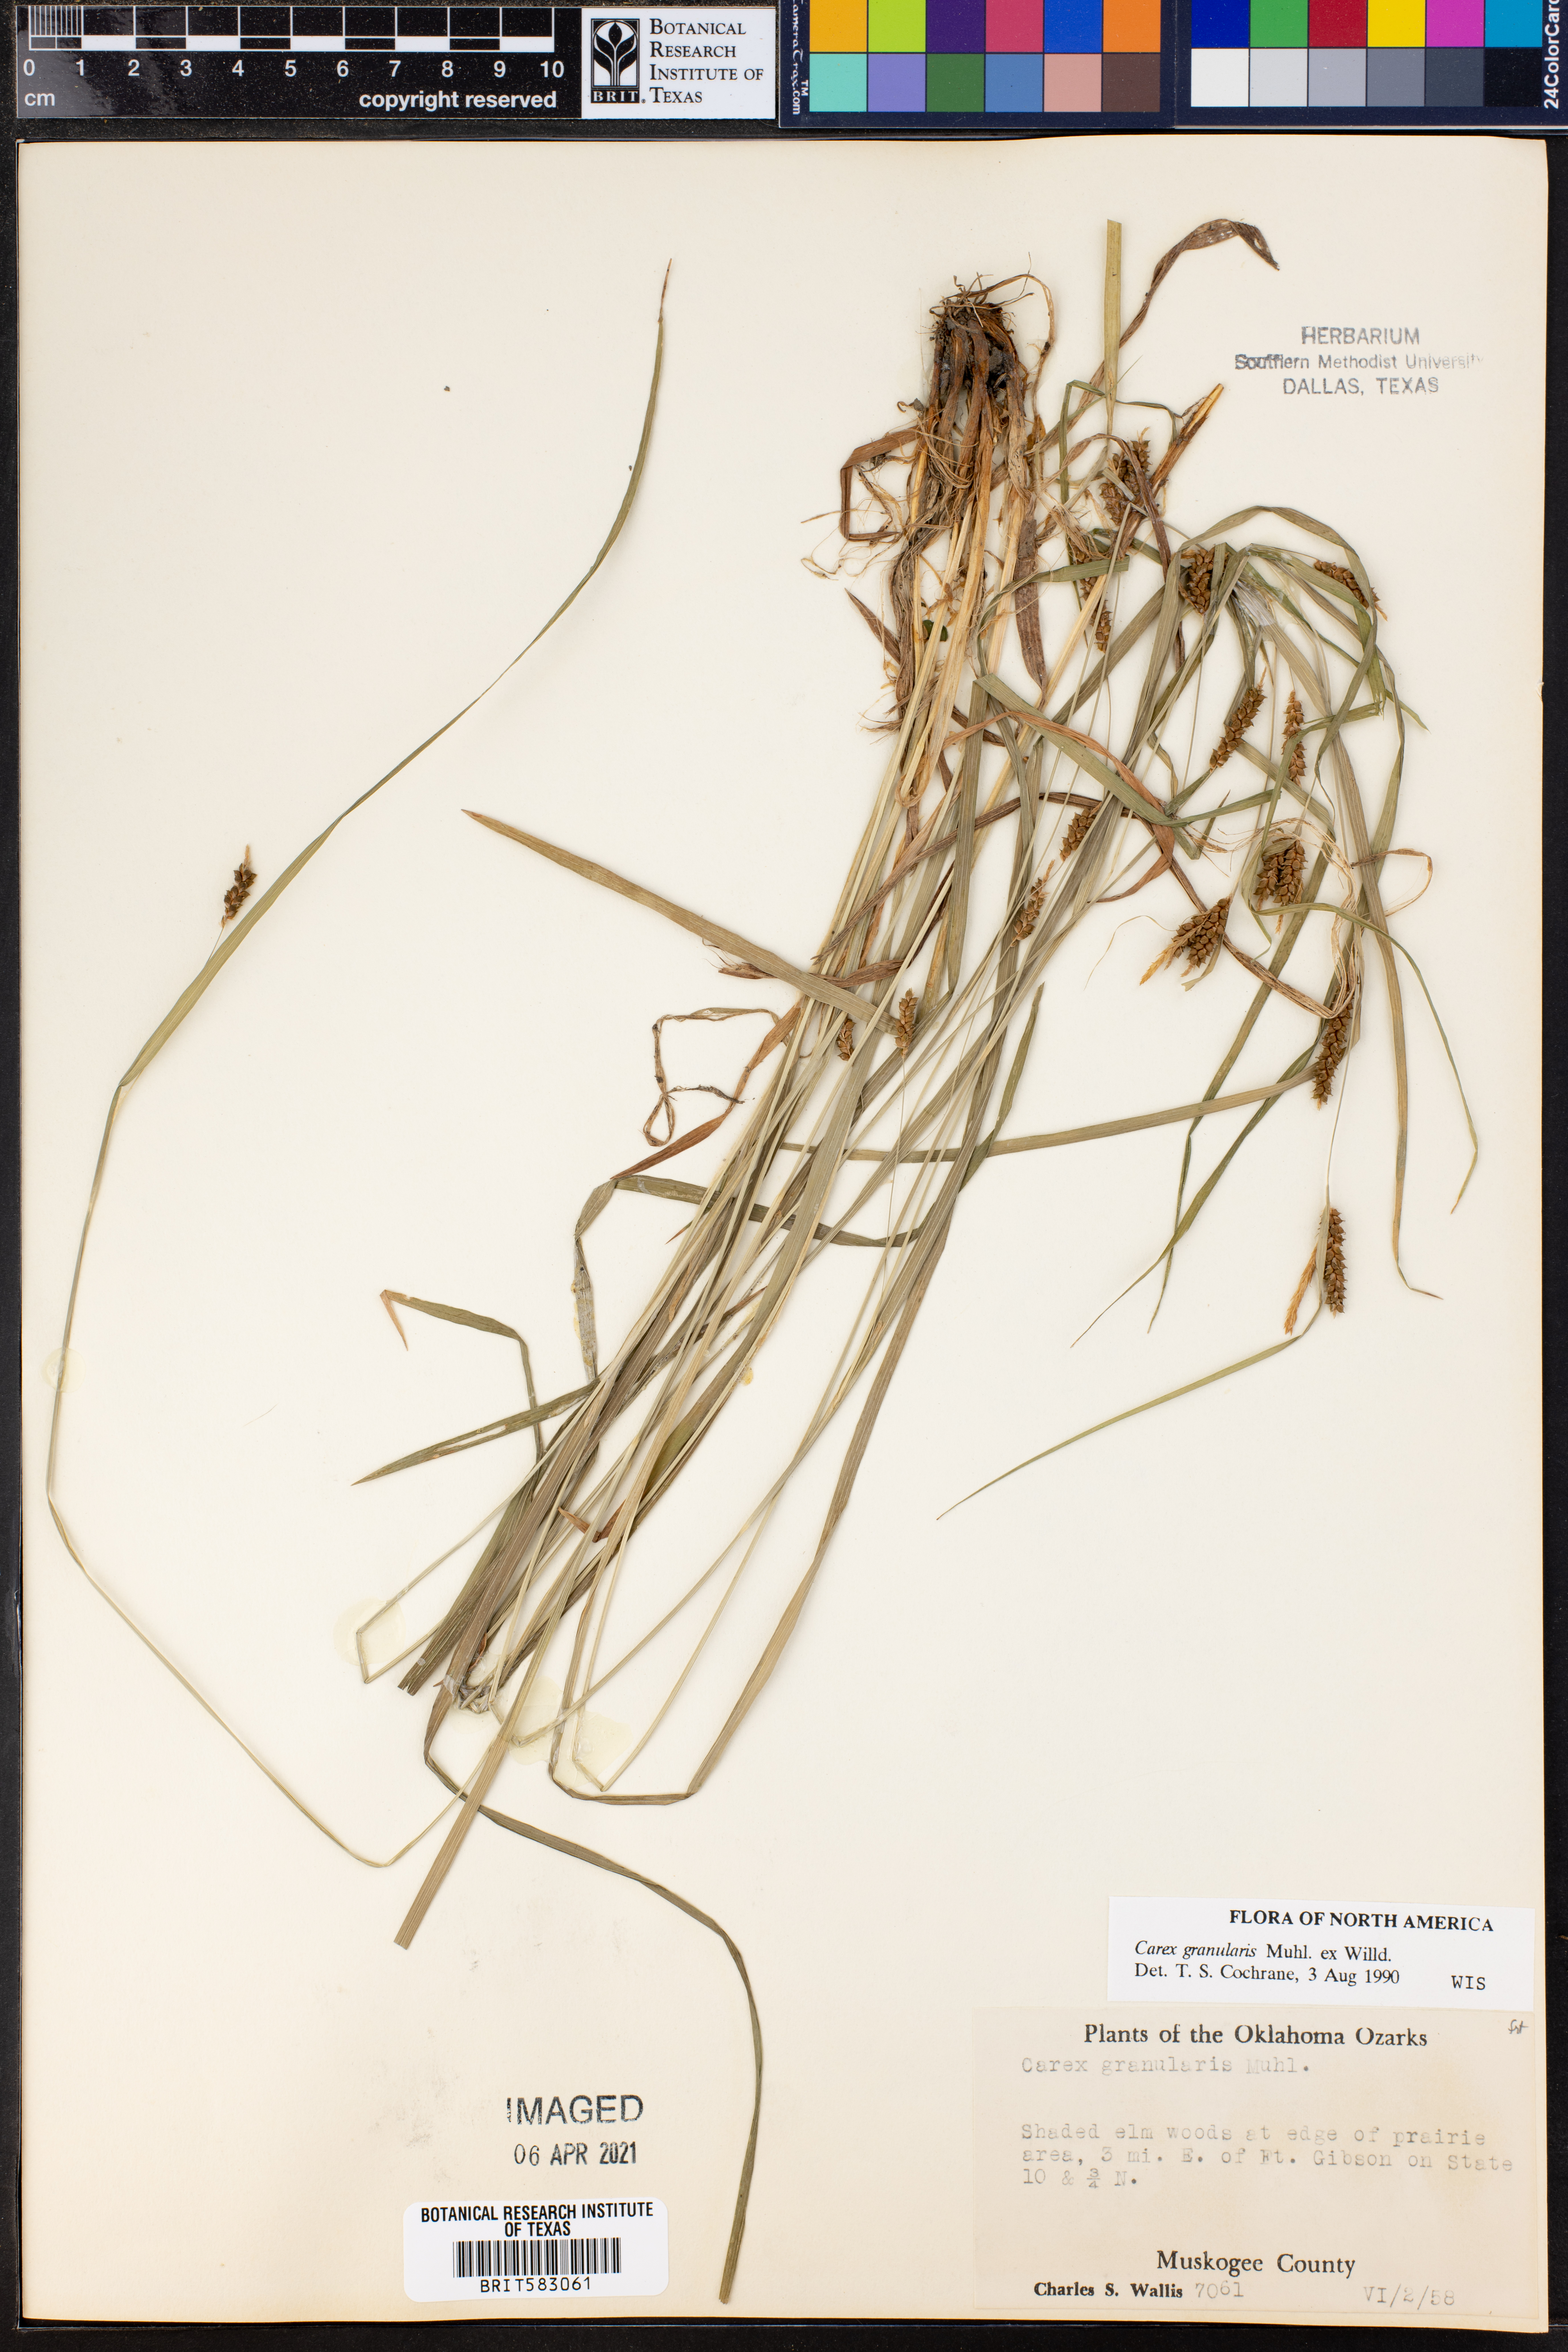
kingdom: Plantae
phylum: Tracheophyta
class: Liliopsida
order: Poales
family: Cyperaceae
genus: Carex
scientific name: Carex granularis
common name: Granular sedge
